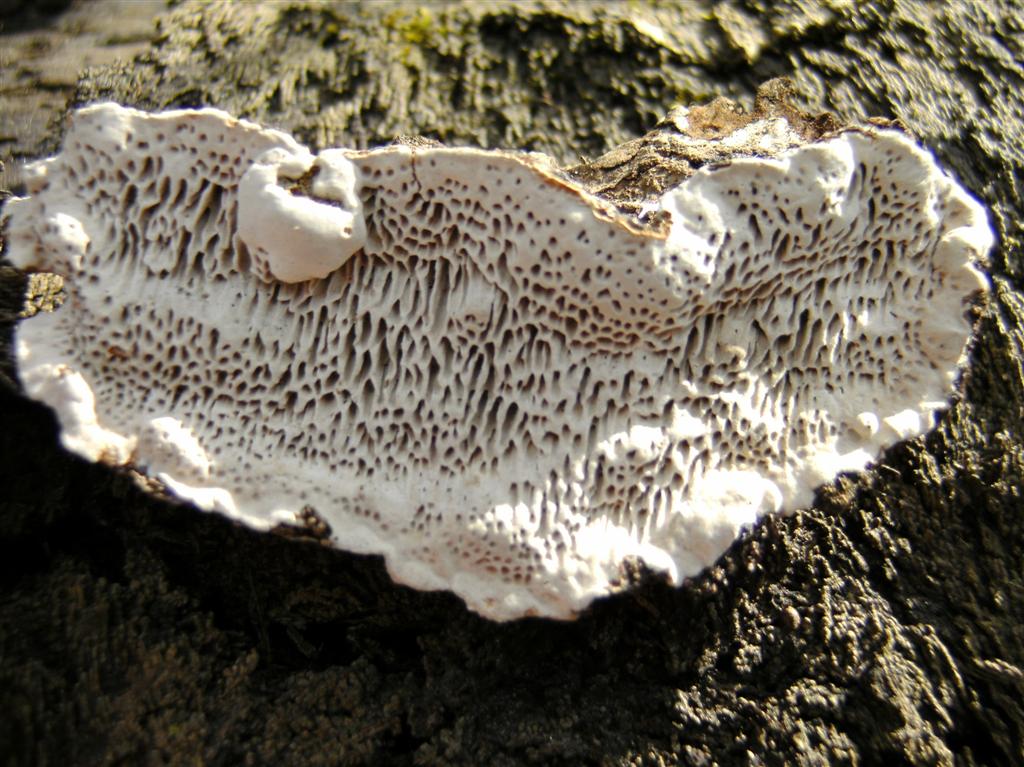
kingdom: Fungi
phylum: Basidiomycota
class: Agaricomycetes
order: Polyporales
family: Polyporaceae
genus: Podofomes
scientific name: Podofomes mollis
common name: blød begporesvamp
